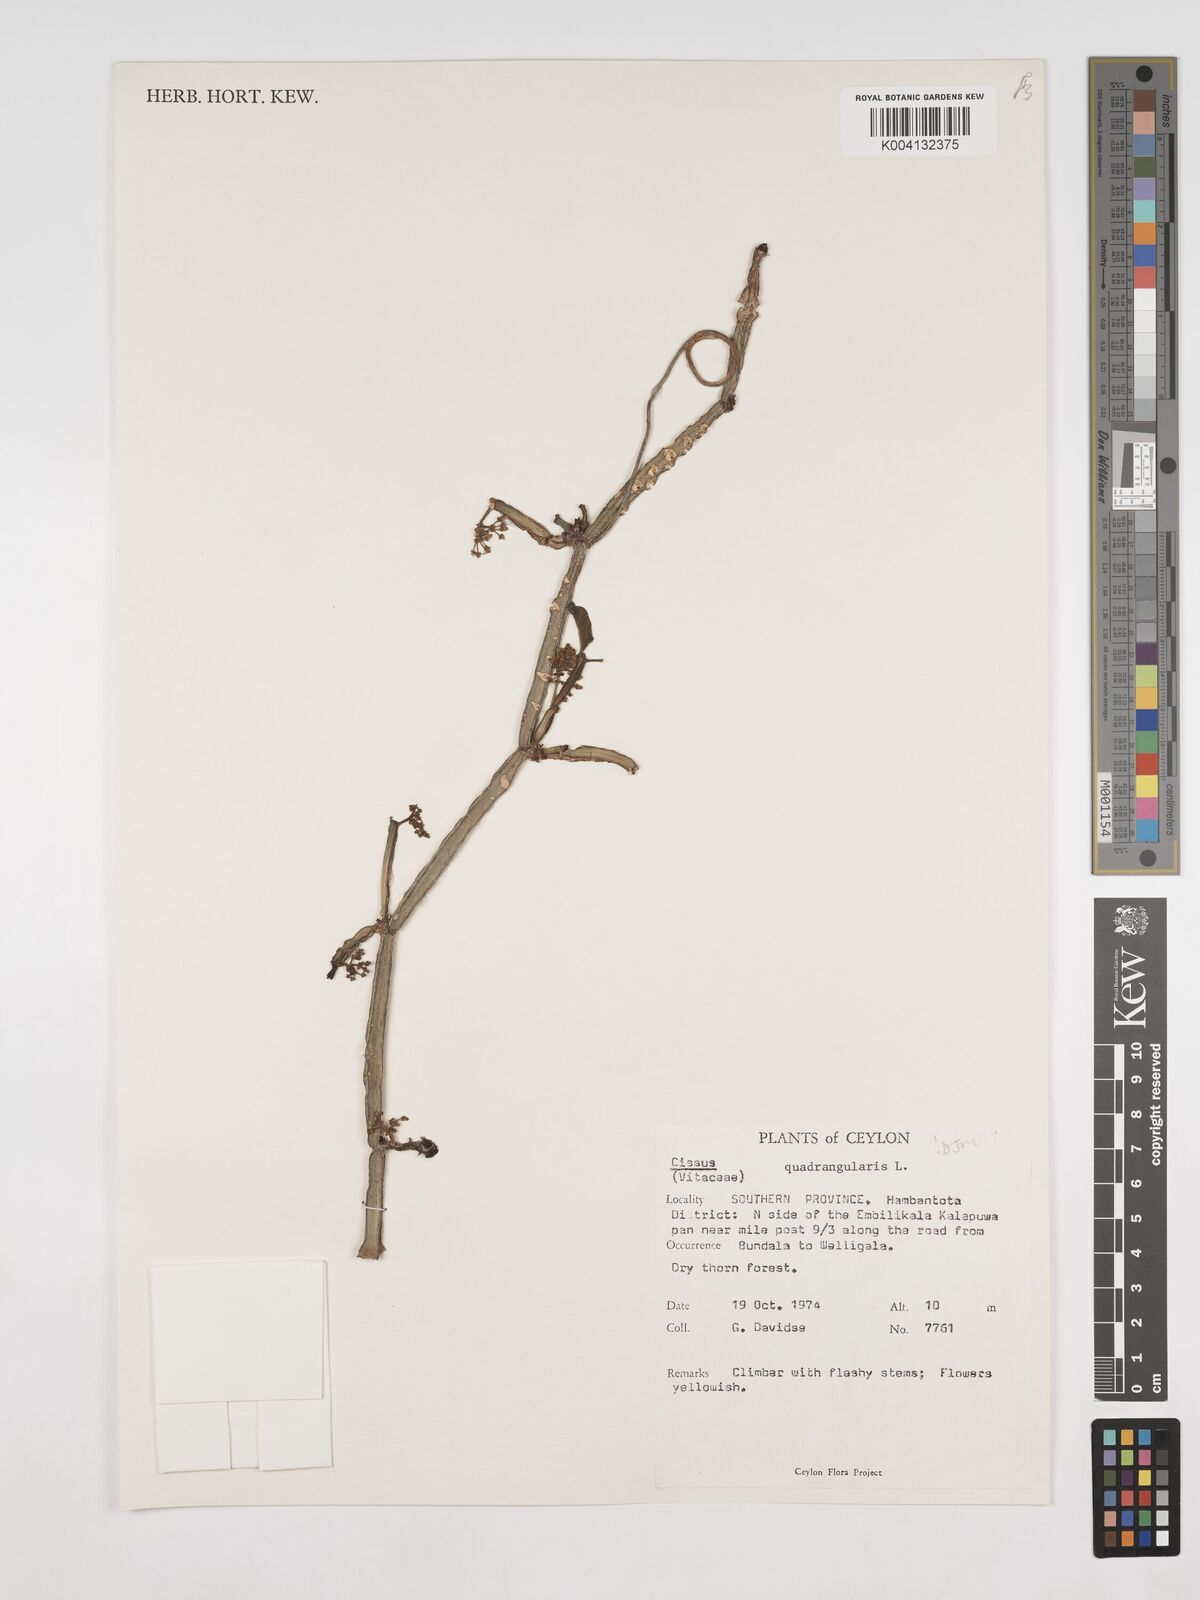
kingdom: Plantae
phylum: Tracheophyta
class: Magnoliopsida
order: Vitales
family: Vitaceae
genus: Cissus
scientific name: Cissus quadrangularis
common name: Veldt-grape
